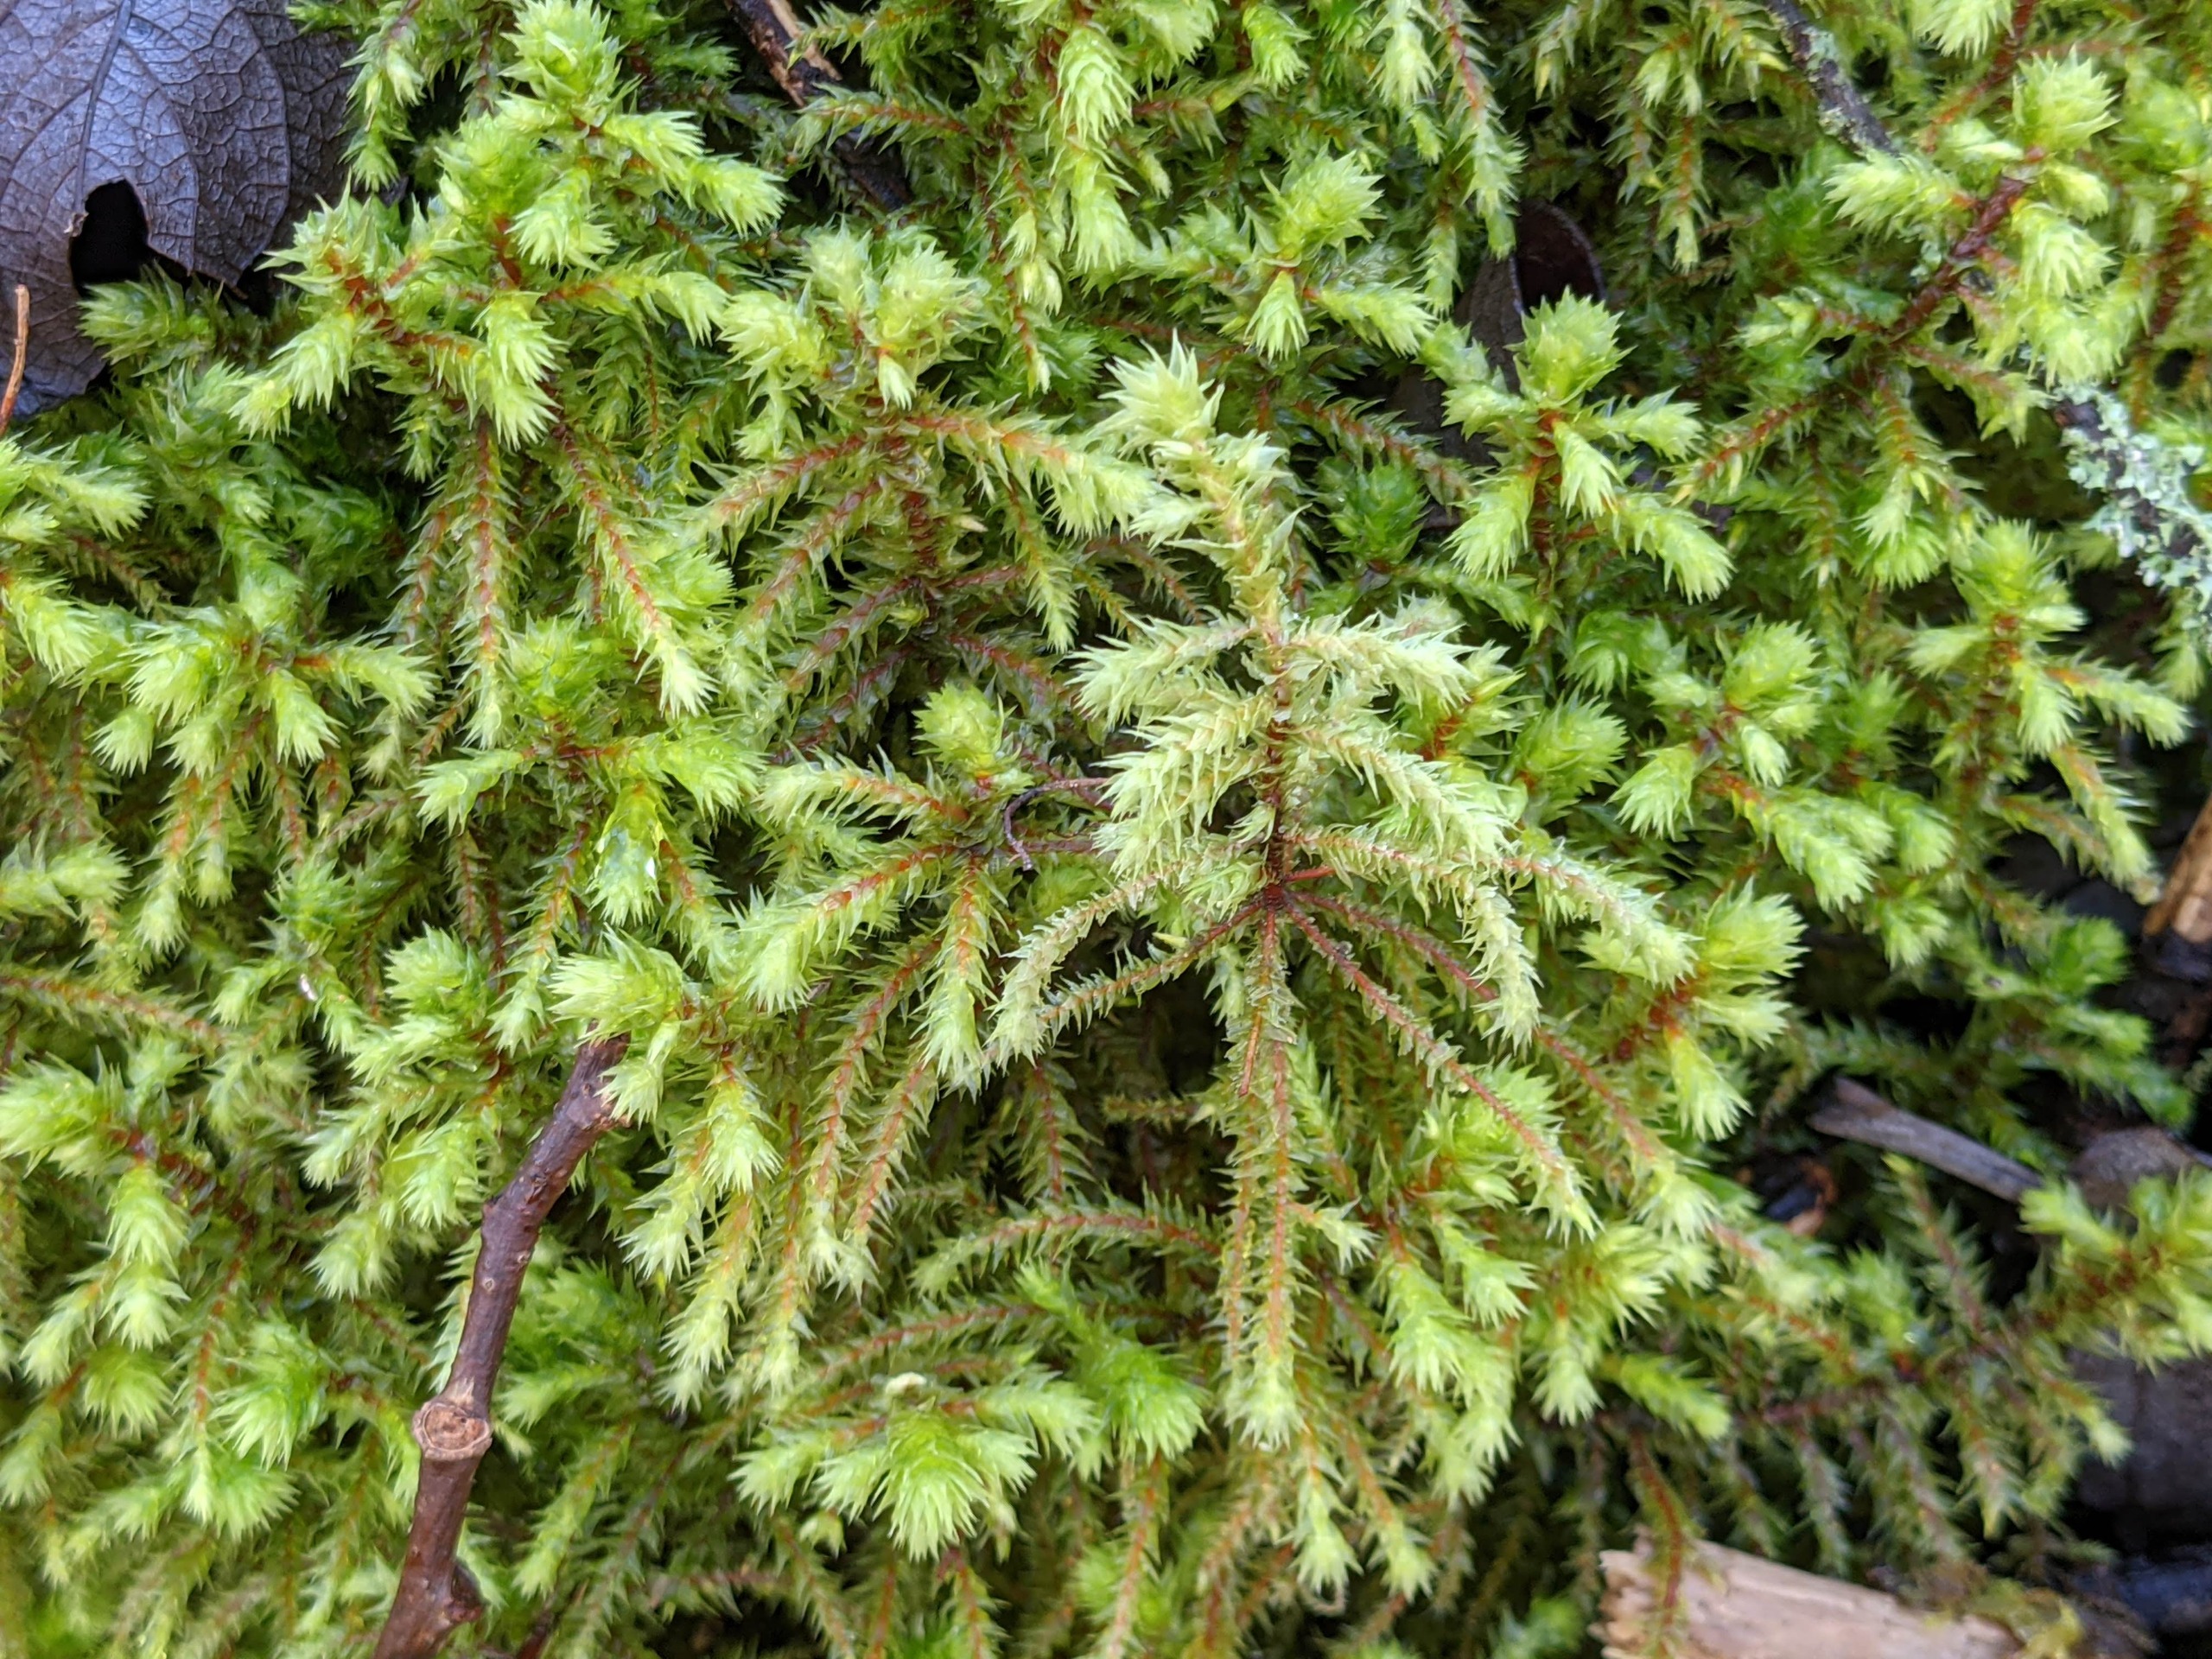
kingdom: Plantae
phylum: Bryophyta
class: Bryopsida
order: Hypnales
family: Hylocomiaceae
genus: Hylocomiadelphus
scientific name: Hylocomiadelphus triquetrus
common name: Stor kransemos
